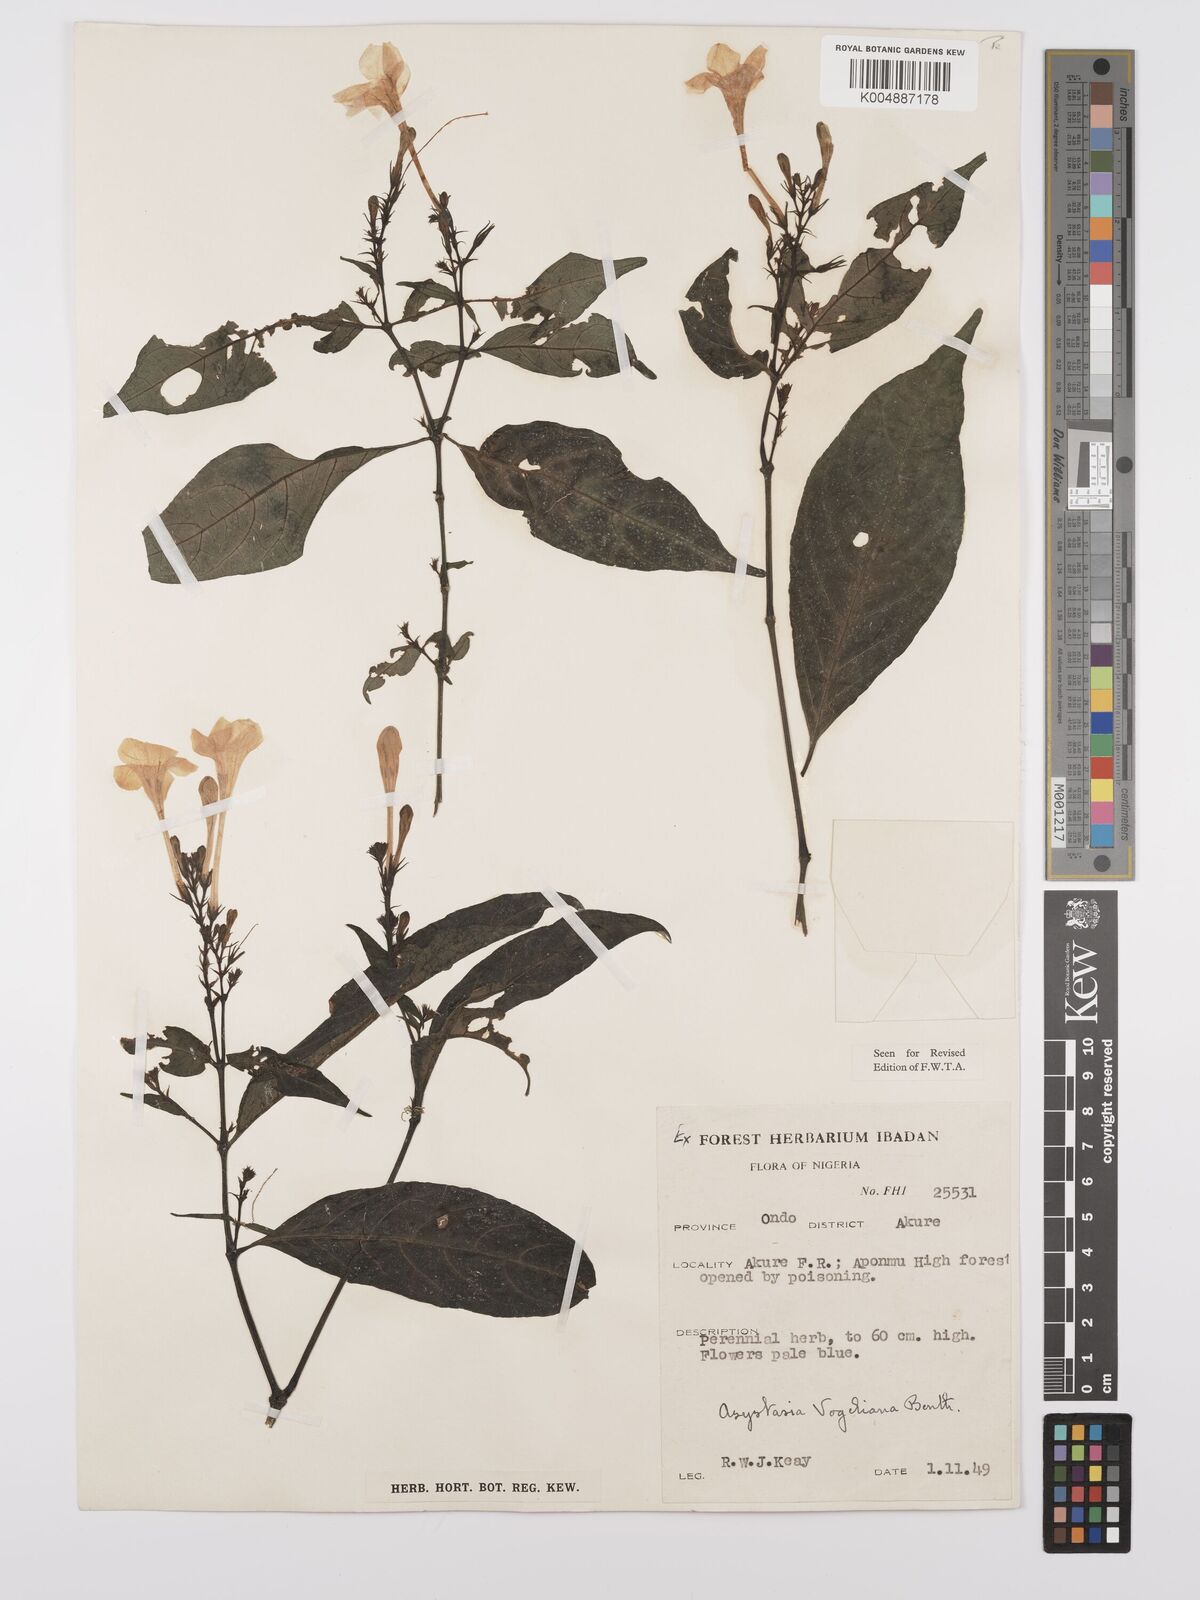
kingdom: Plantae
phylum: Tracheophyta
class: Magnoliopsida
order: Lamiales
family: Acanthaceae
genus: Asystasia
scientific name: Asystasia vogeliana
